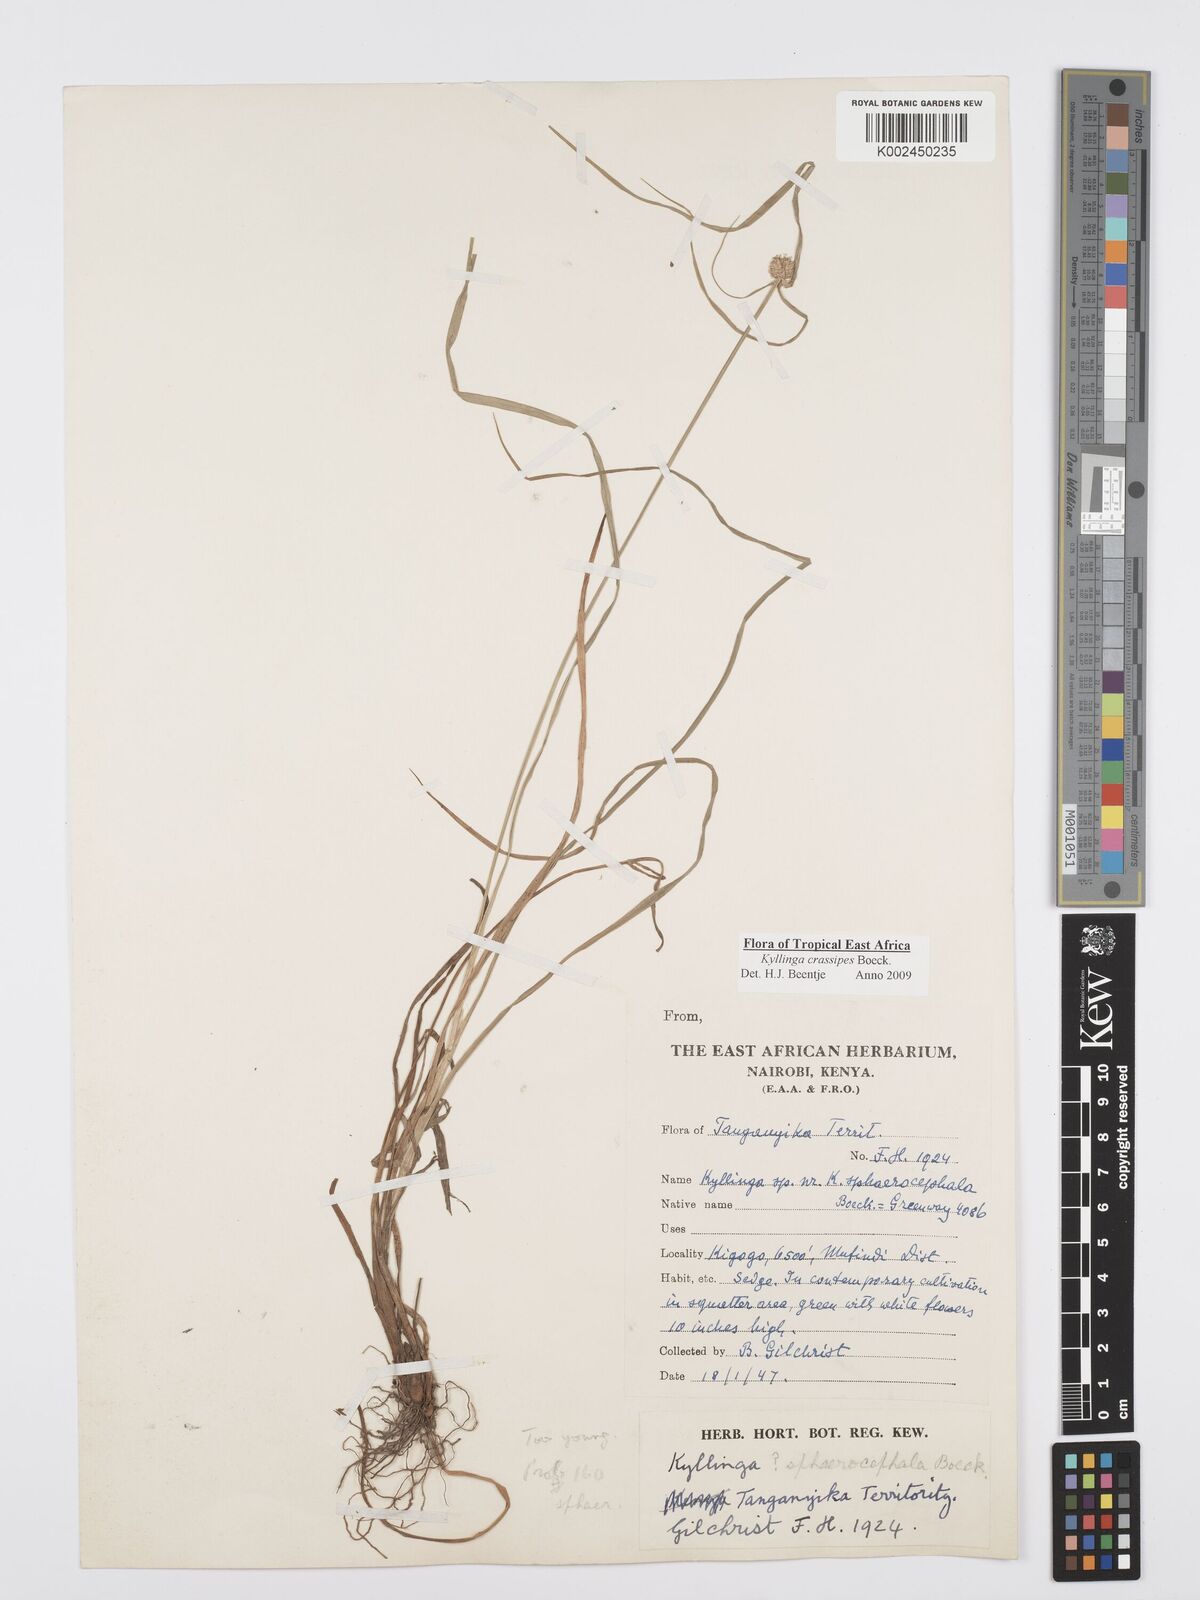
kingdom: Plantae
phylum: Tracheophyta
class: Liliopsida
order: Poales
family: Cyperaceae
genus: Cyperus
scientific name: Cyperus crassipes
